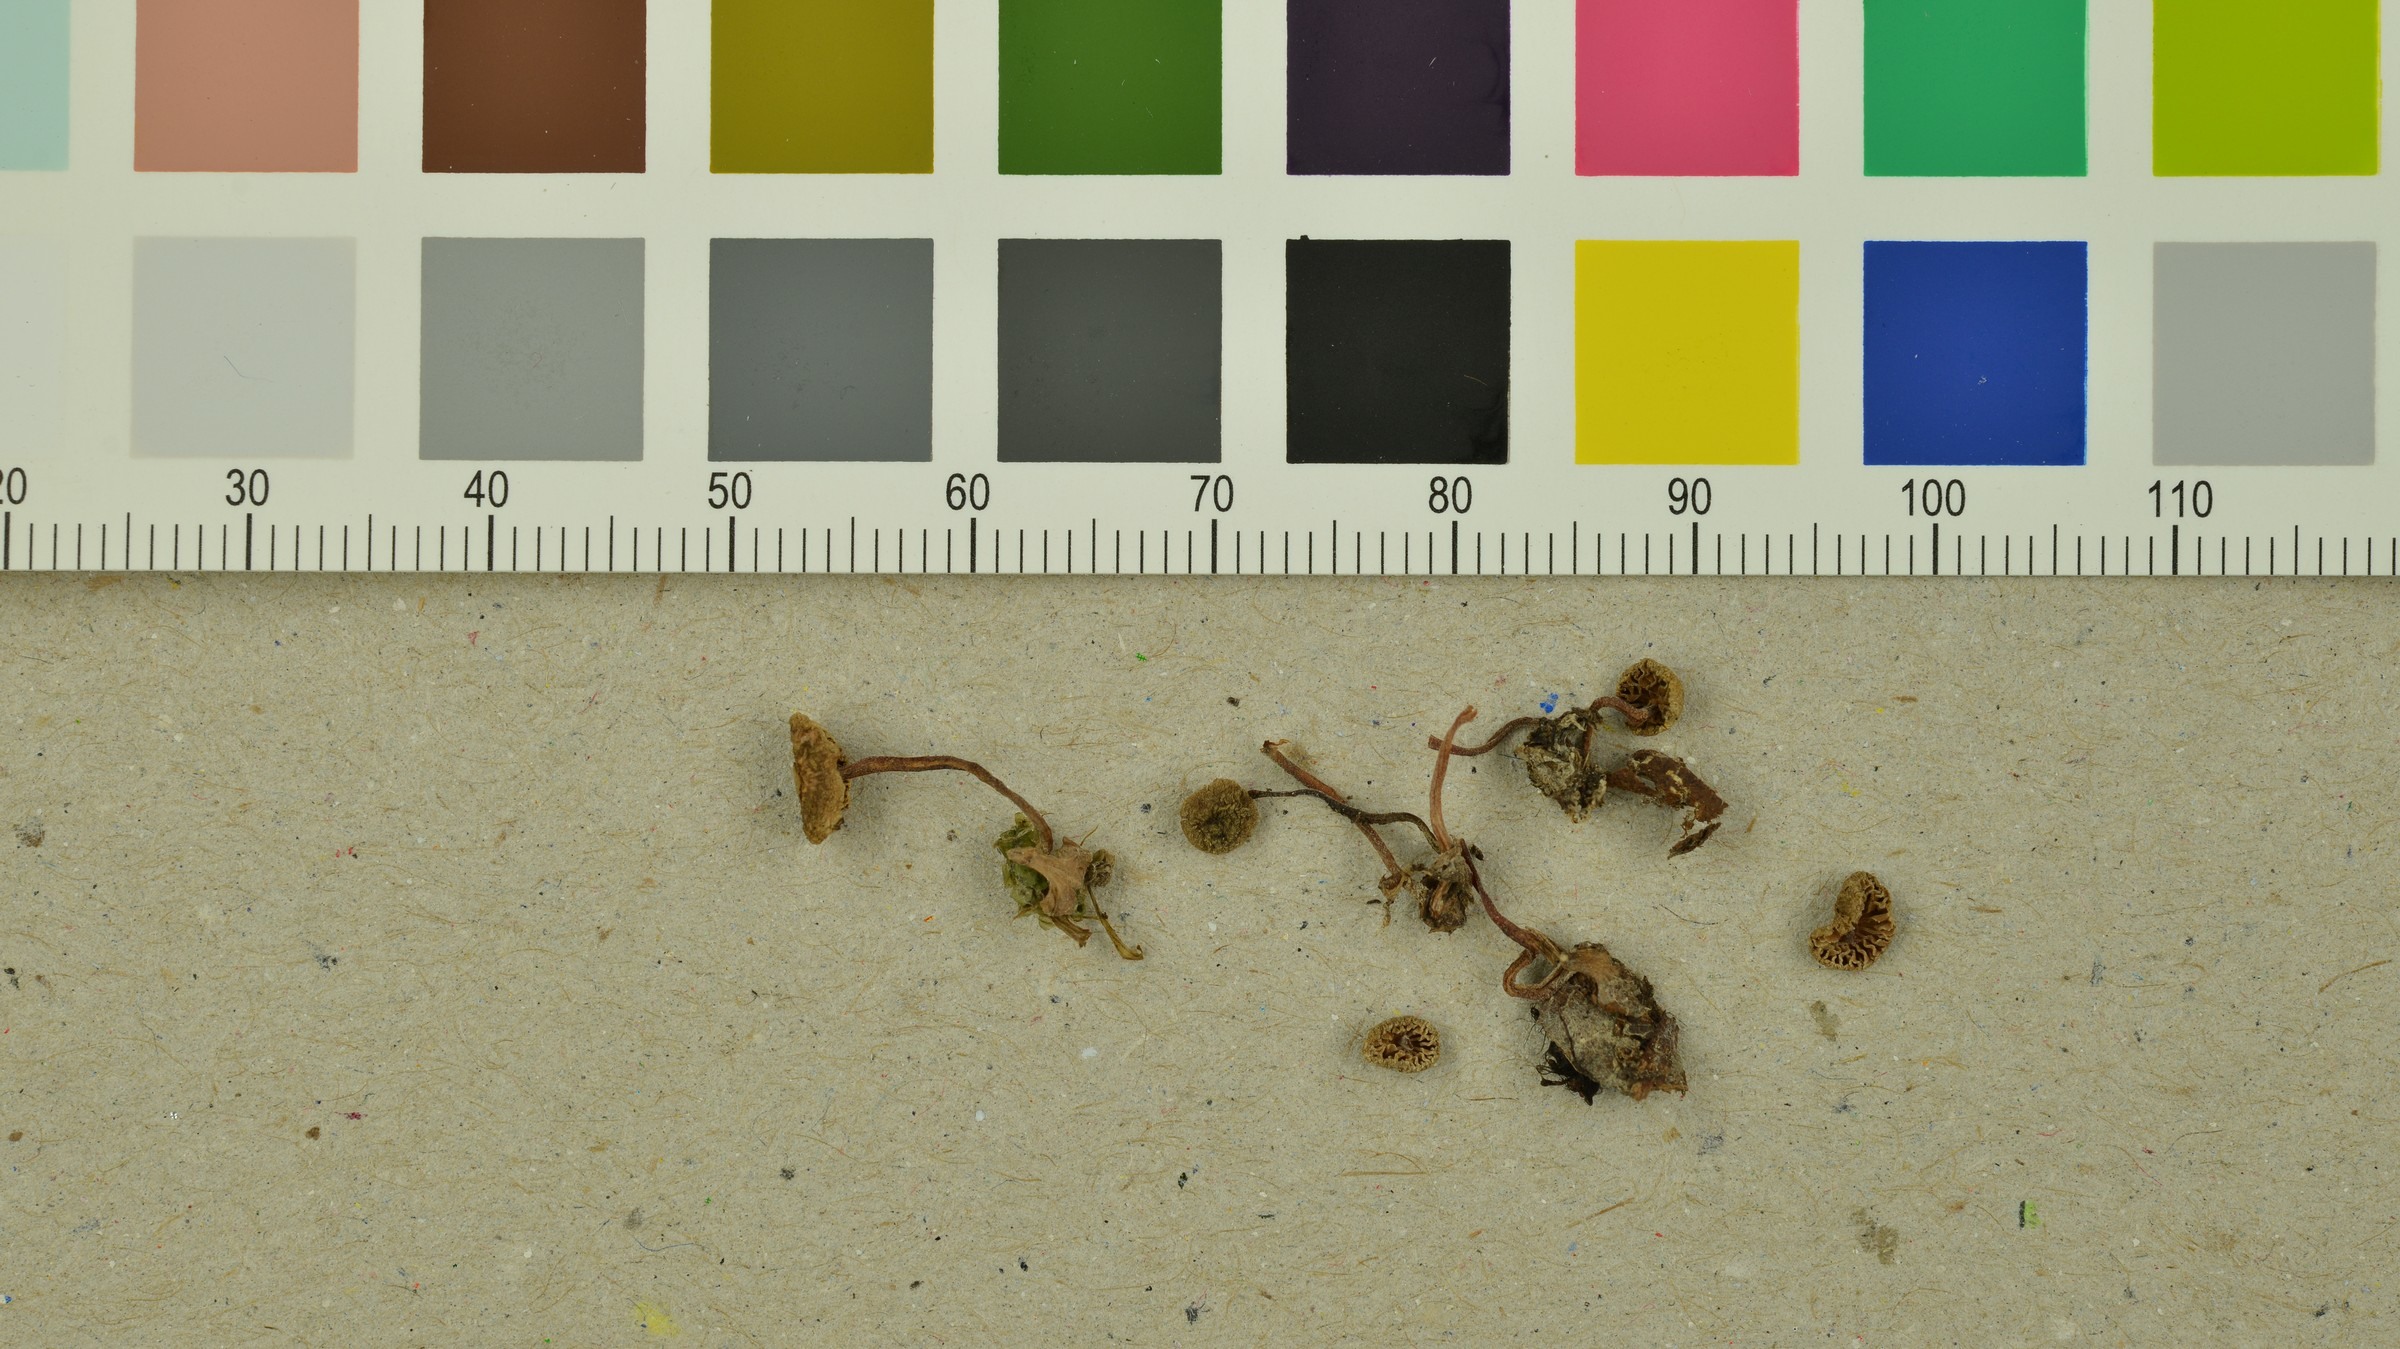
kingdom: Fungi
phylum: Basidiomycota
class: Agaricomycetes
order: Agaricales
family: Inocybaceae
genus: Inocybe
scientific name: Inocybe petiginosa
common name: Scurfy fibrecap
